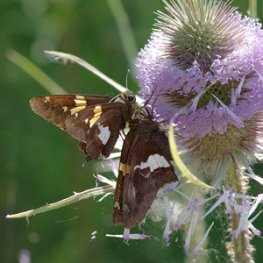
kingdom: Animalia
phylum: Arthropoda
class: Insecta
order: Lepidoptera
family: Hesperiidae
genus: Epargyreus
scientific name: Epargyreus clarus
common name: Silver-spotted Skipper
